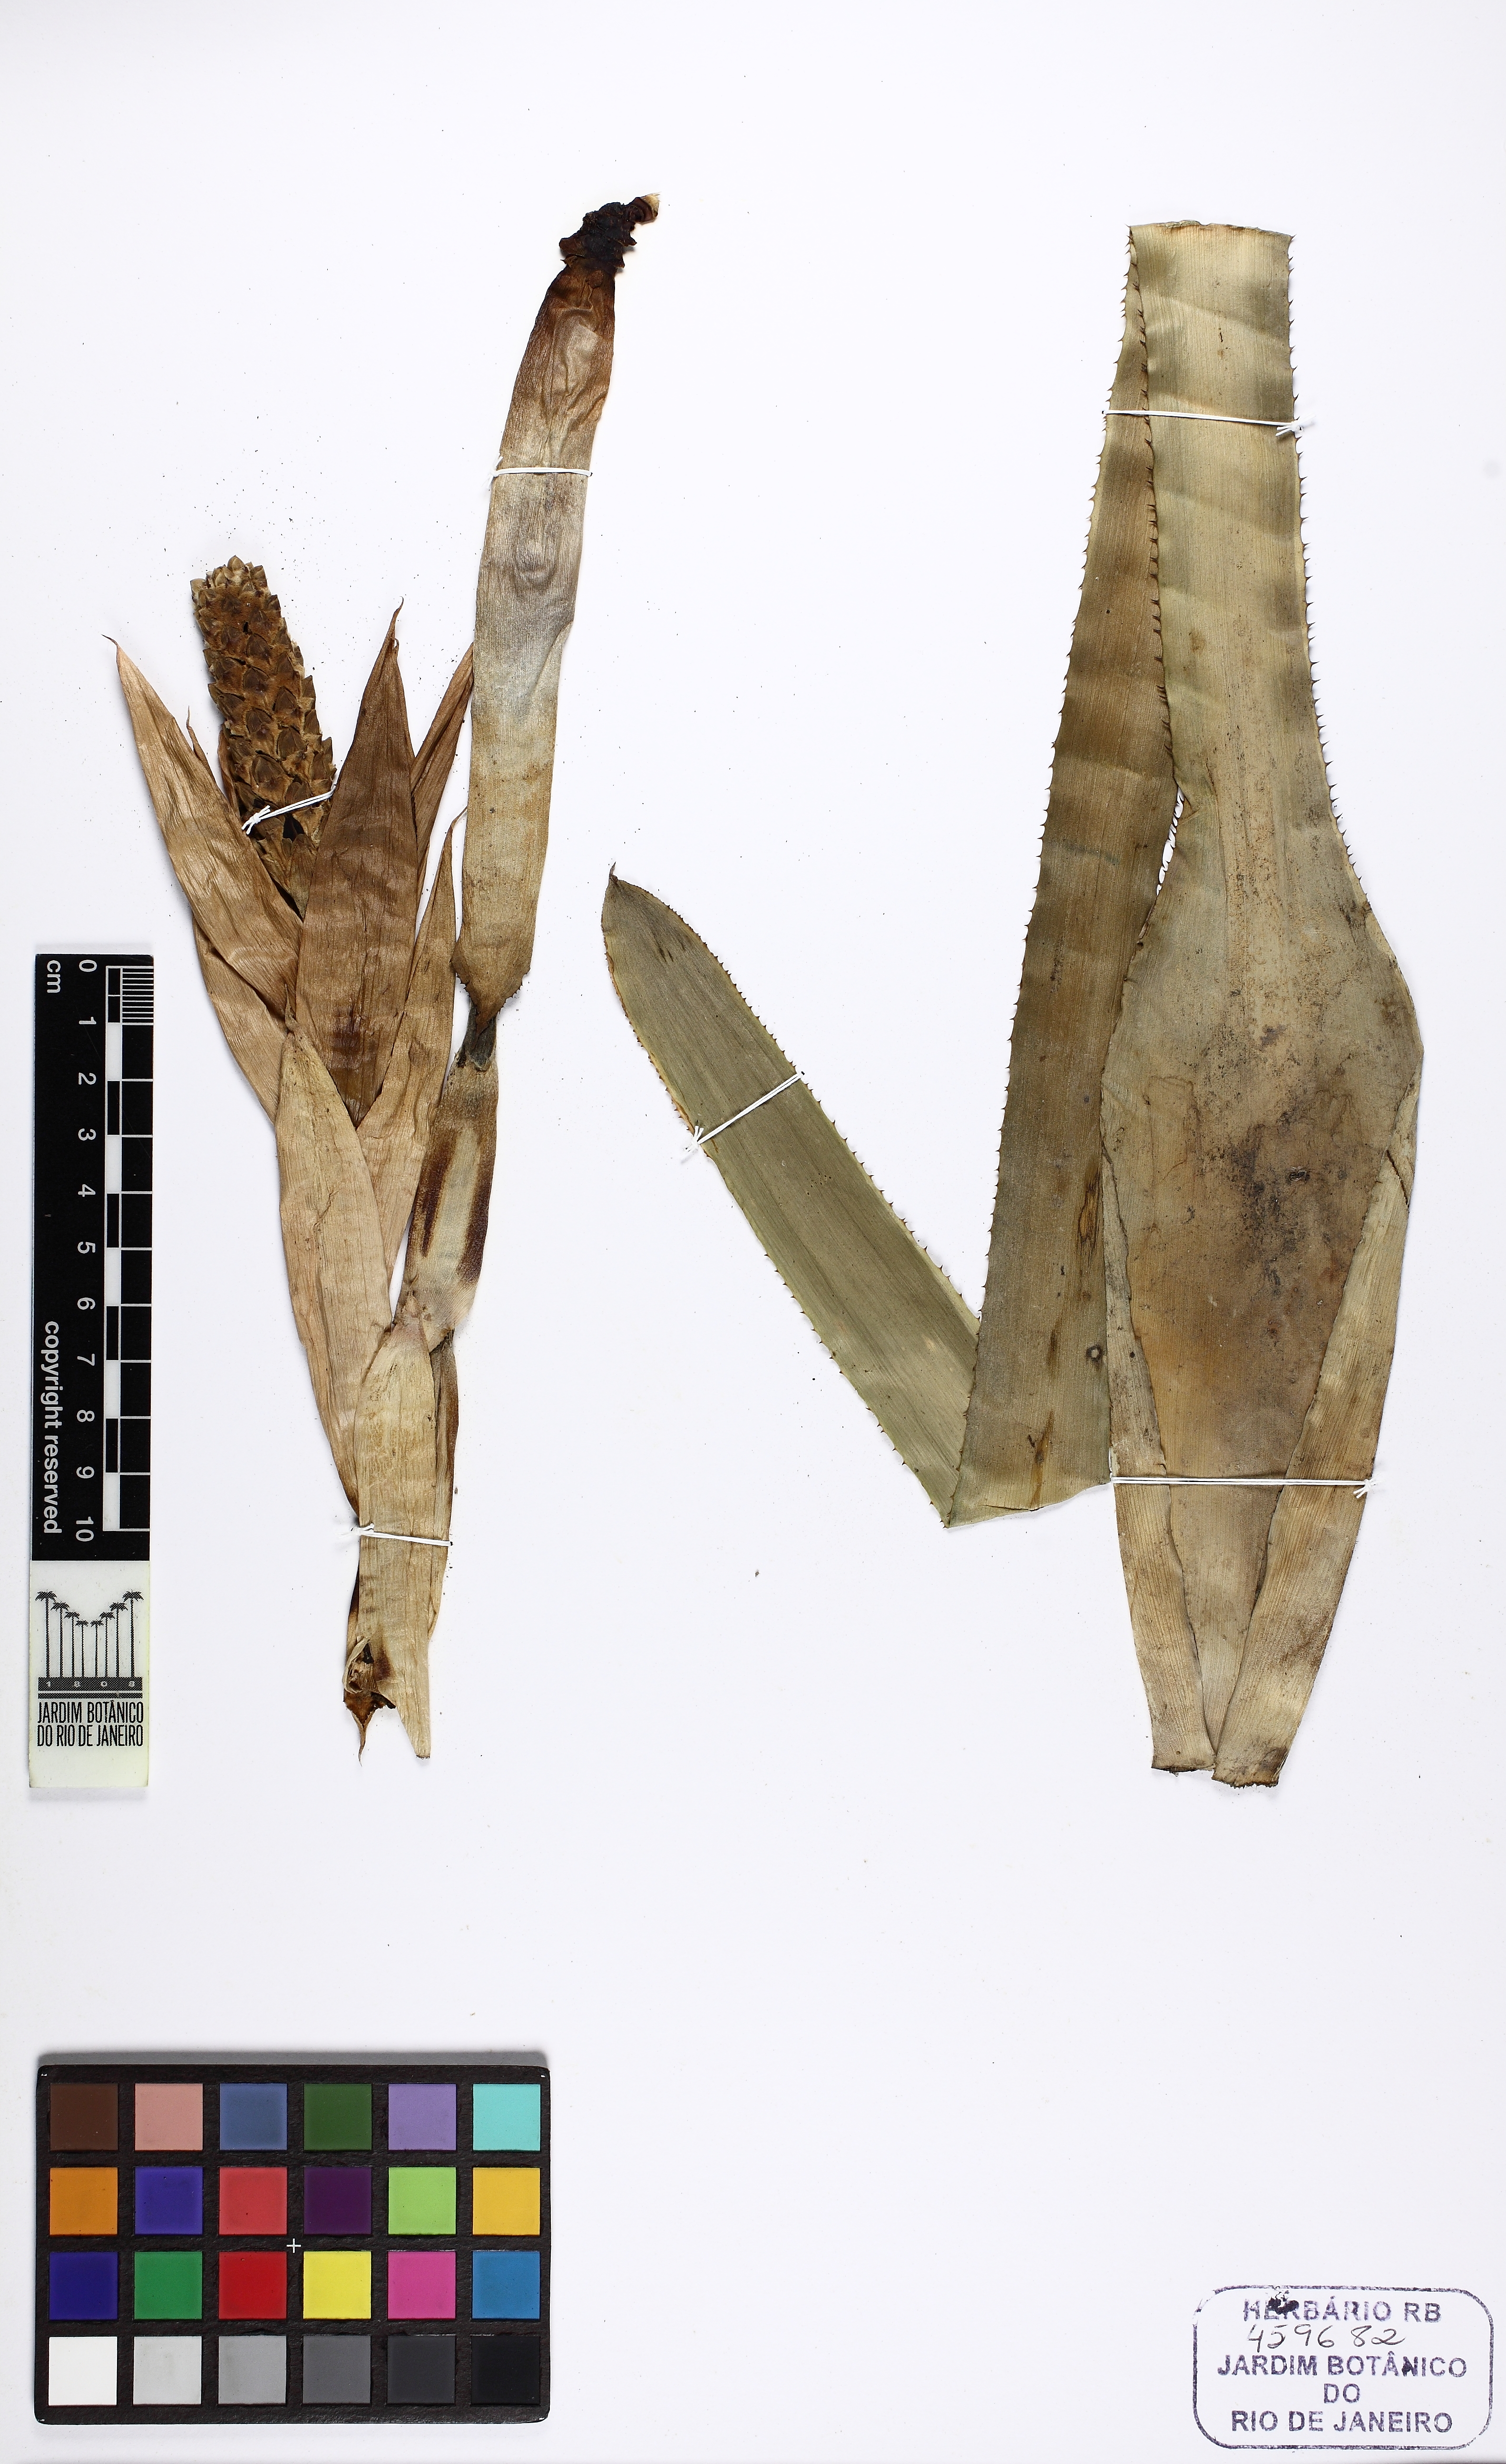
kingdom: Plantae
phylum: Tracheophyta
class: Liliopsida
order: Poales
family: Bromeliaceae
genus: Aechmea
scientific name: Aechmea maasii
